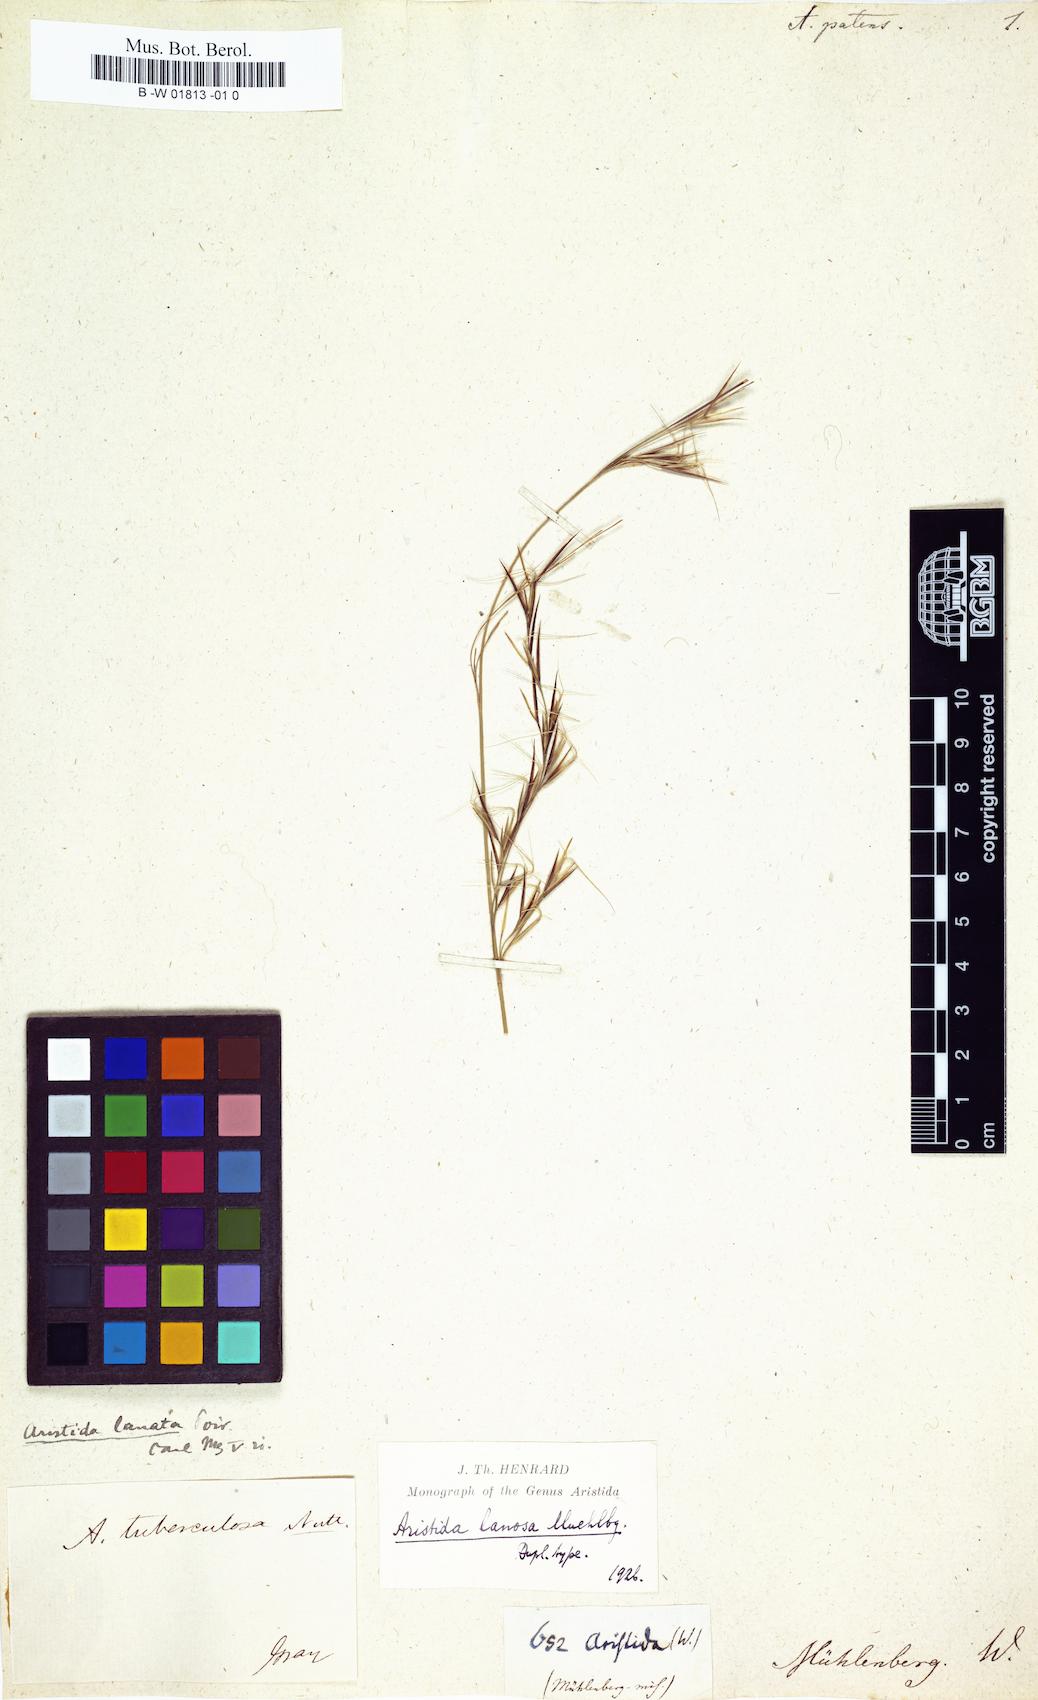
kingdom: Plantae
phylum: Tracheophyta
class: Liliopsida
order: Poales
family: Poaceae
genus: Aristida
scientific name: Aristida pallens
